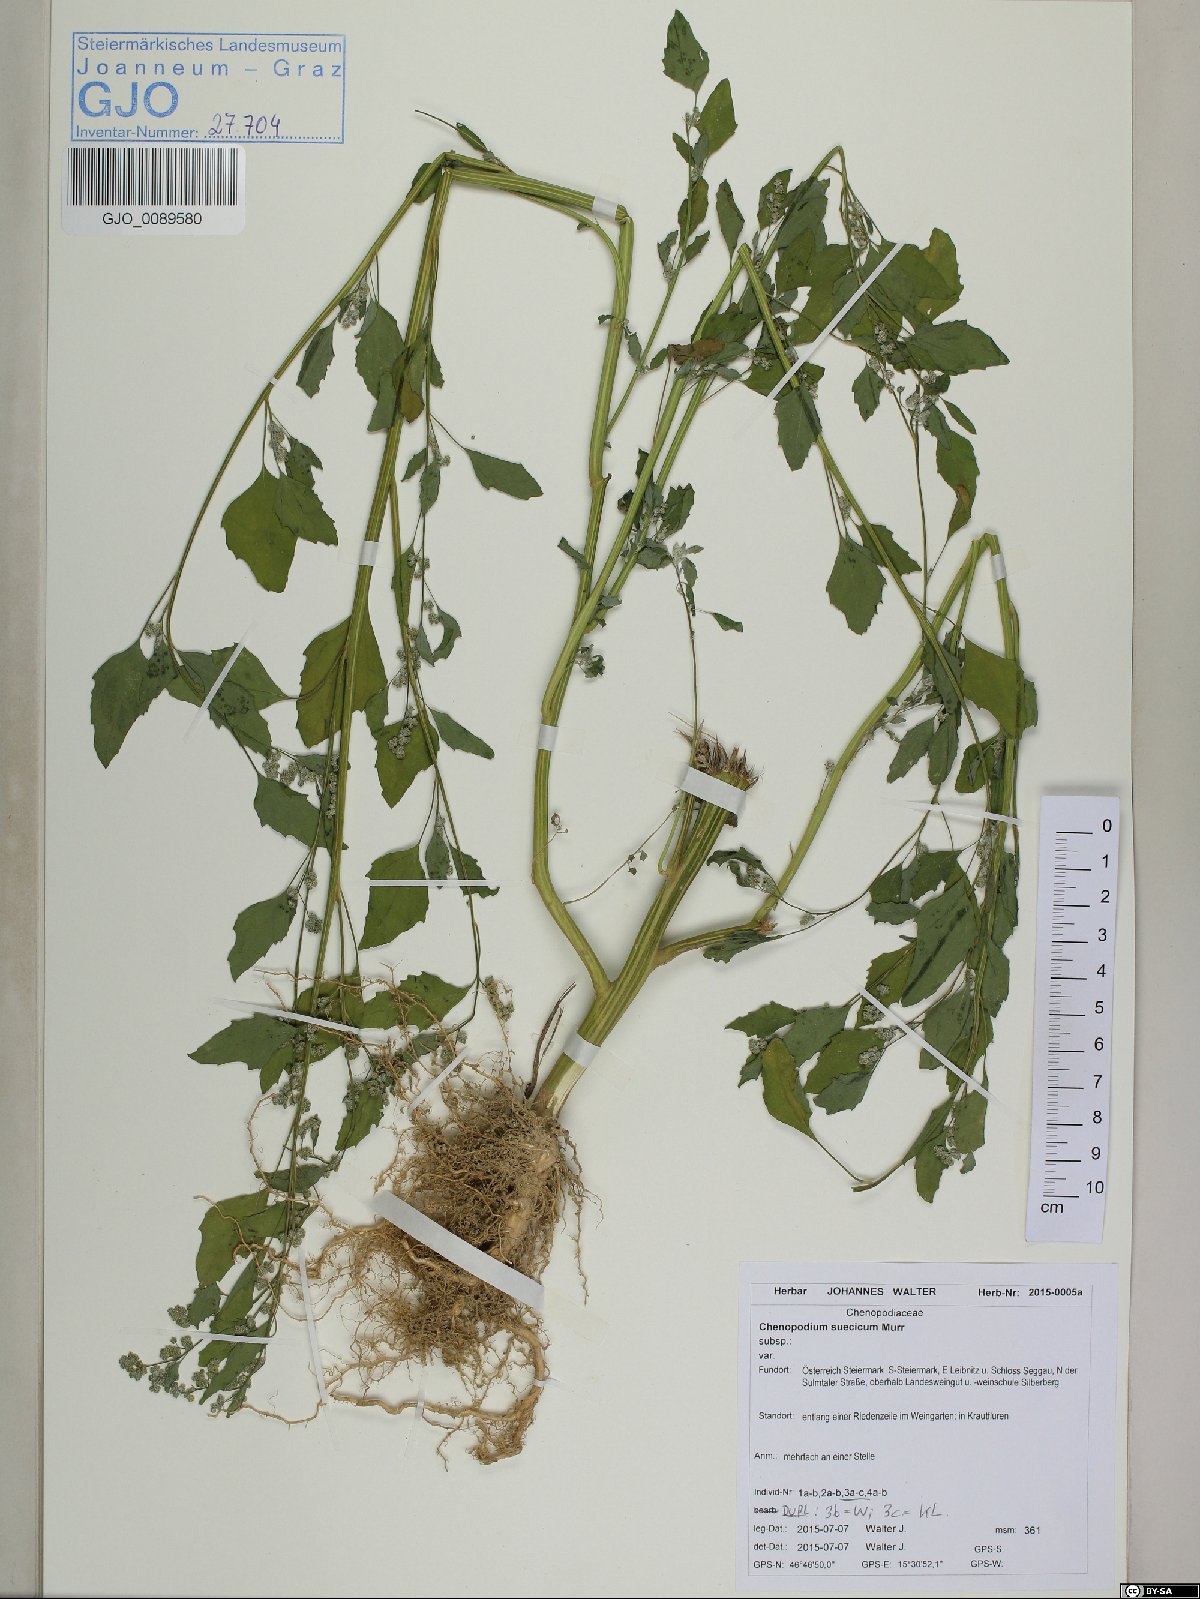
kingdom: Plantae
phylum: Tracheophyta
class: Magnoliopsida
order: Caryophyllales
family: Amaranthaceae
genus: Chenopodium
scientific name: Chenopodium suecicum
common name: Swedish goosefoot
